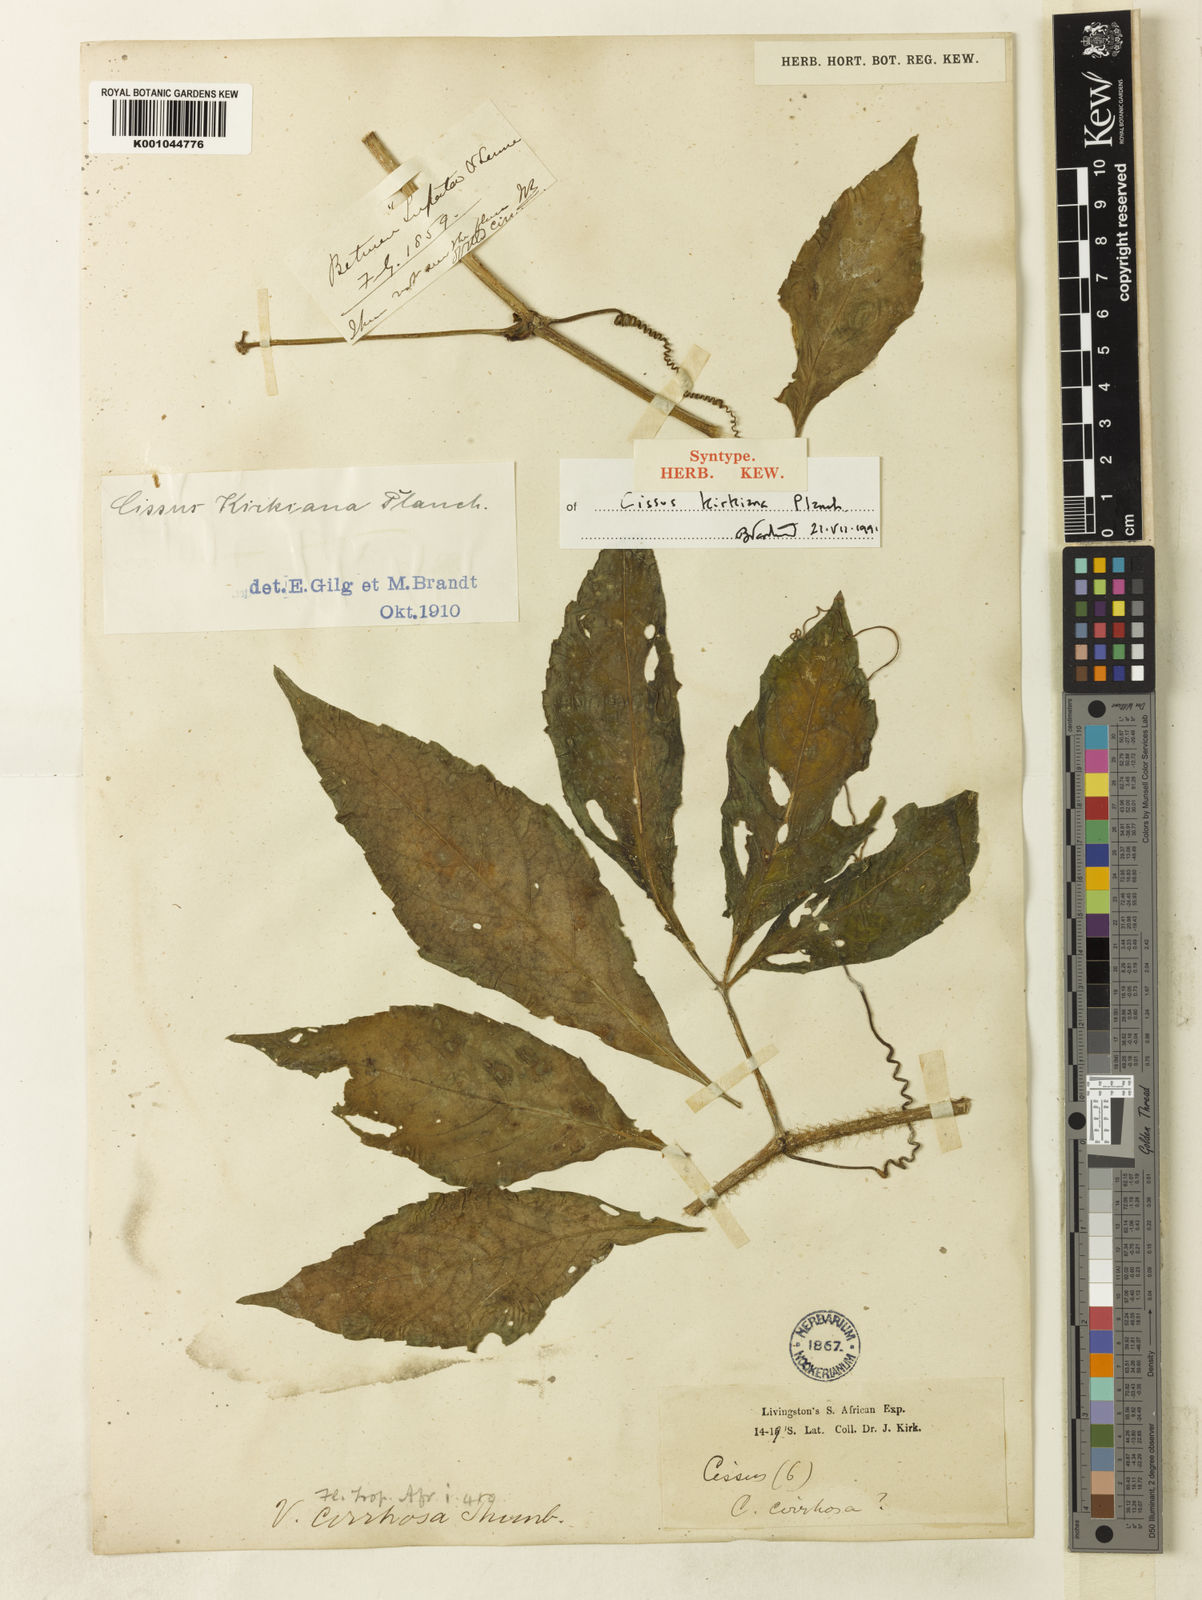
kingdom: Plantae
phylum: Tracheophyta
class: Magnoliopsida
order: Vitales
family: Vitaceae
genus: Cyphostemma
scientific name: Cyphostemma kirkianum
